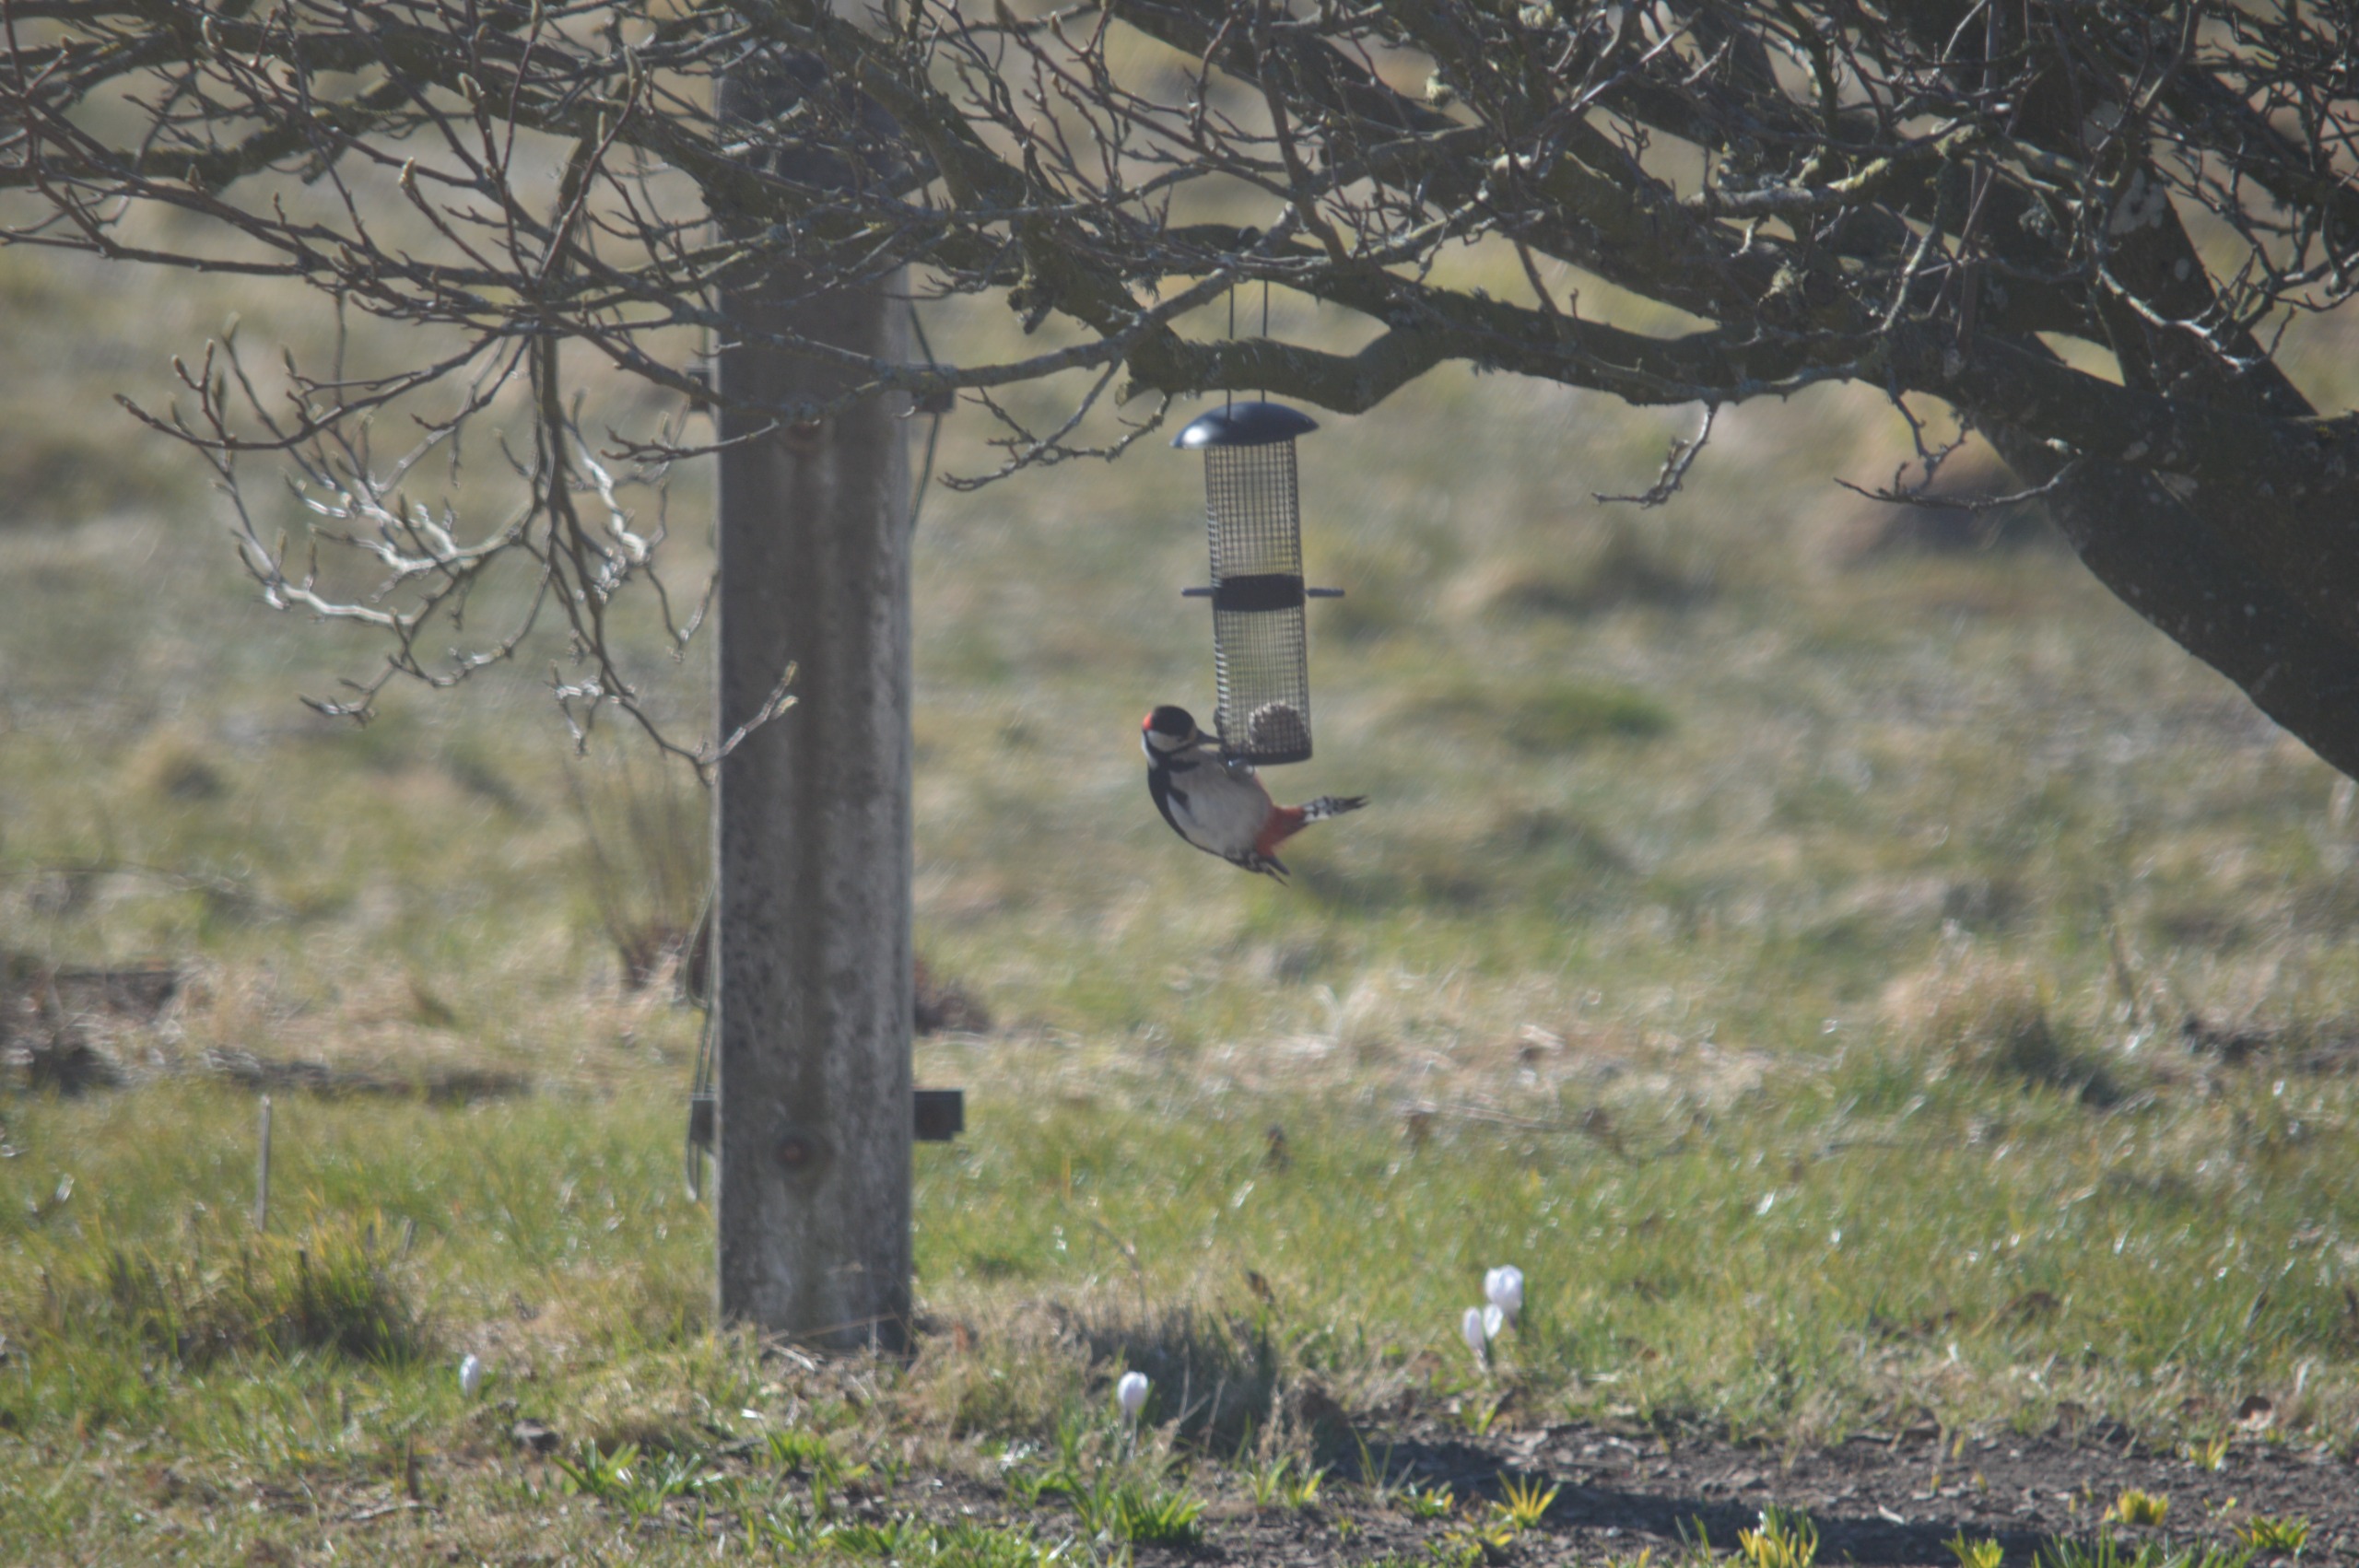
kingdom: Animalia
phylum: Chordata
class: Aves
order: Piciformes
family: Picidae
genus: Dendrocopos
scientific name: Dendrocopos major
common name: Stor flagspætte
